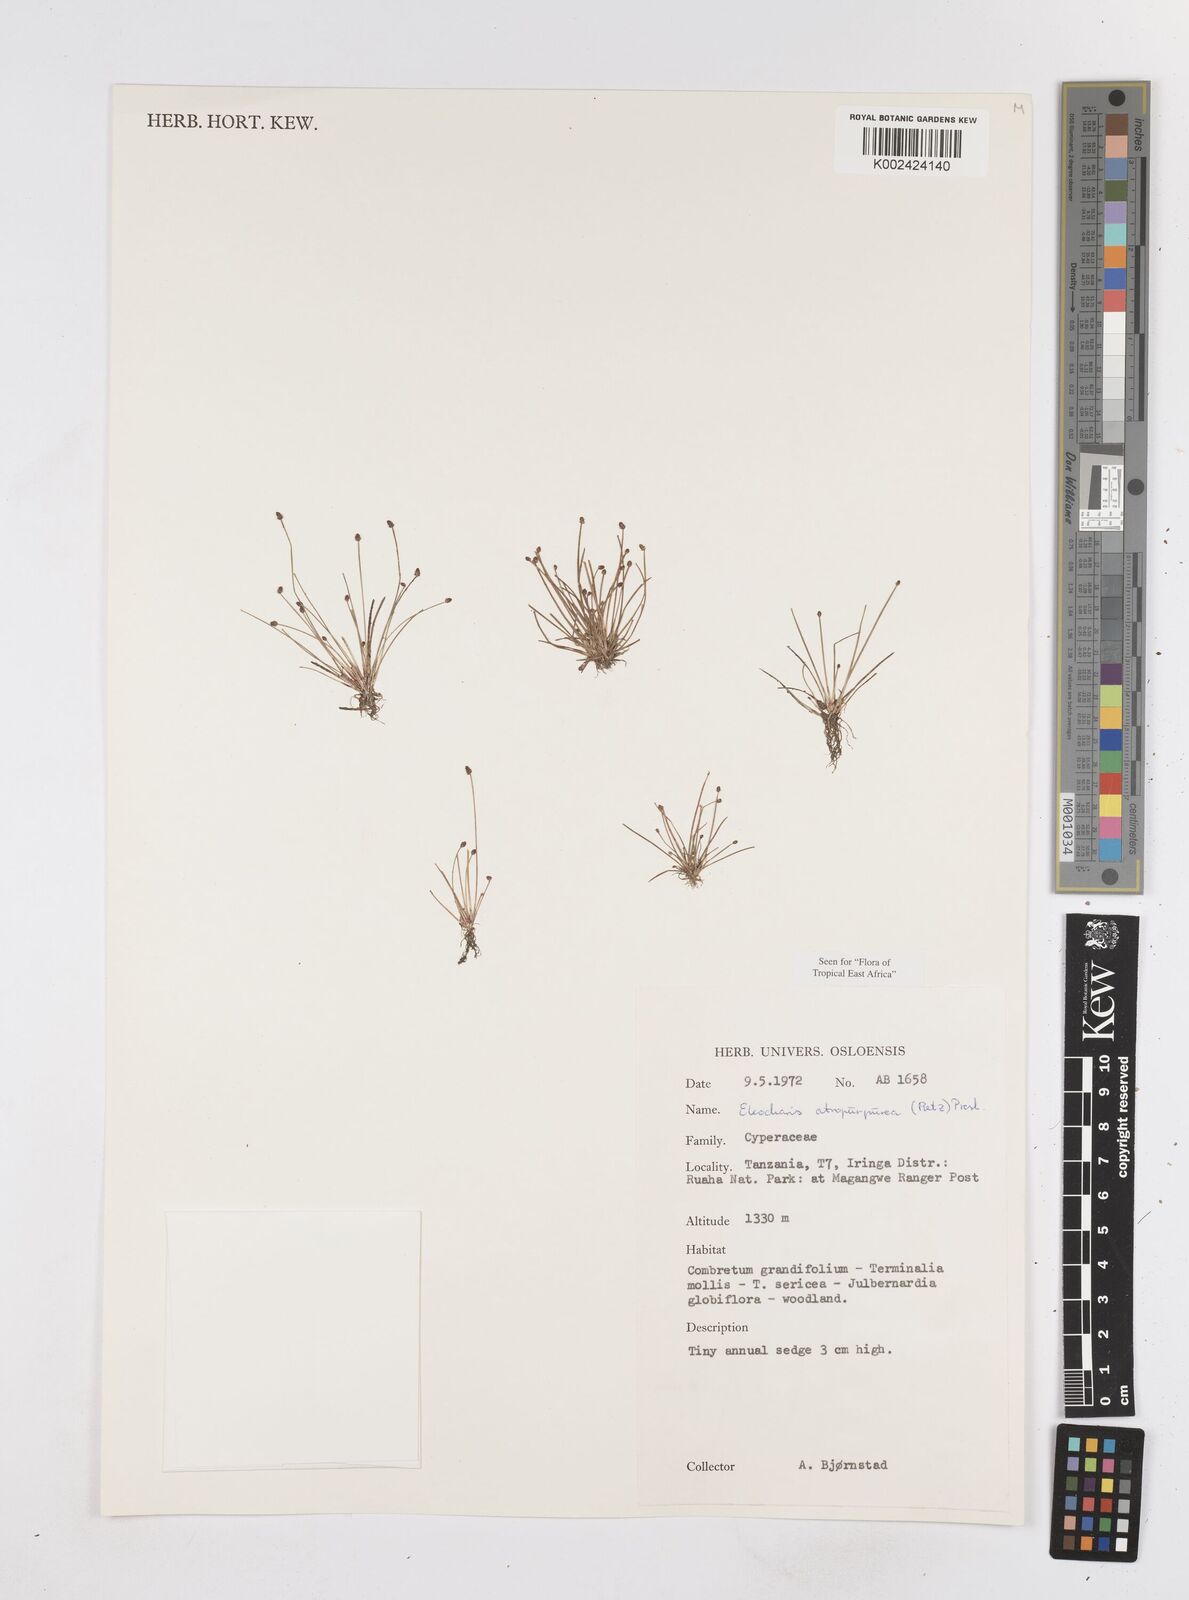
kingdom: Plantae
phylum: Tracheophyta
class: Liliopsida
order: Poales
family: Cyperaceae
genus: Eleocharis
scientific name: Eleocharis atropurpurea
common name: Purple spikerush
